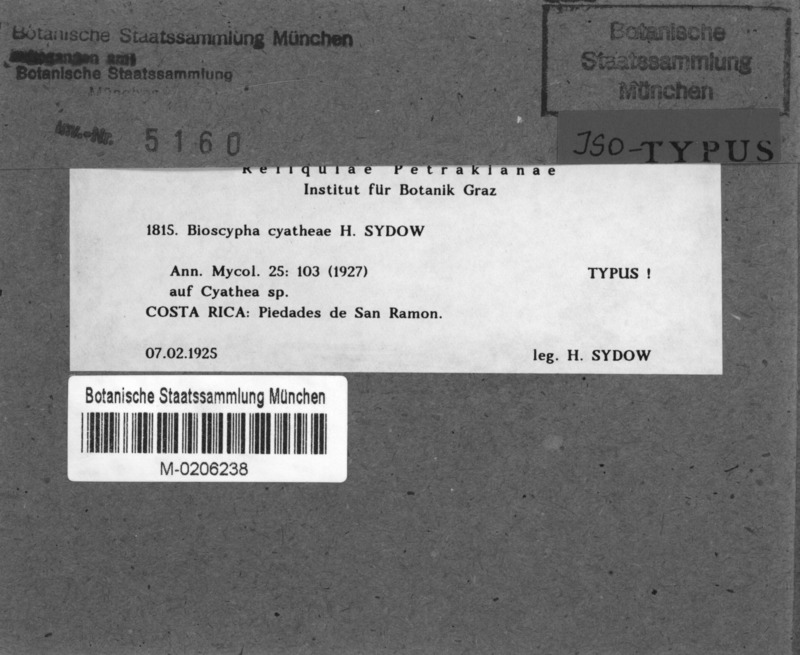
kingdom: Fungi
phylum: Ascomycota
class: Leotiomycetes
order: Helotiales
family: Helotiaceae
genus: Bioscypha
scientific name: Bioscypha cyatheae
